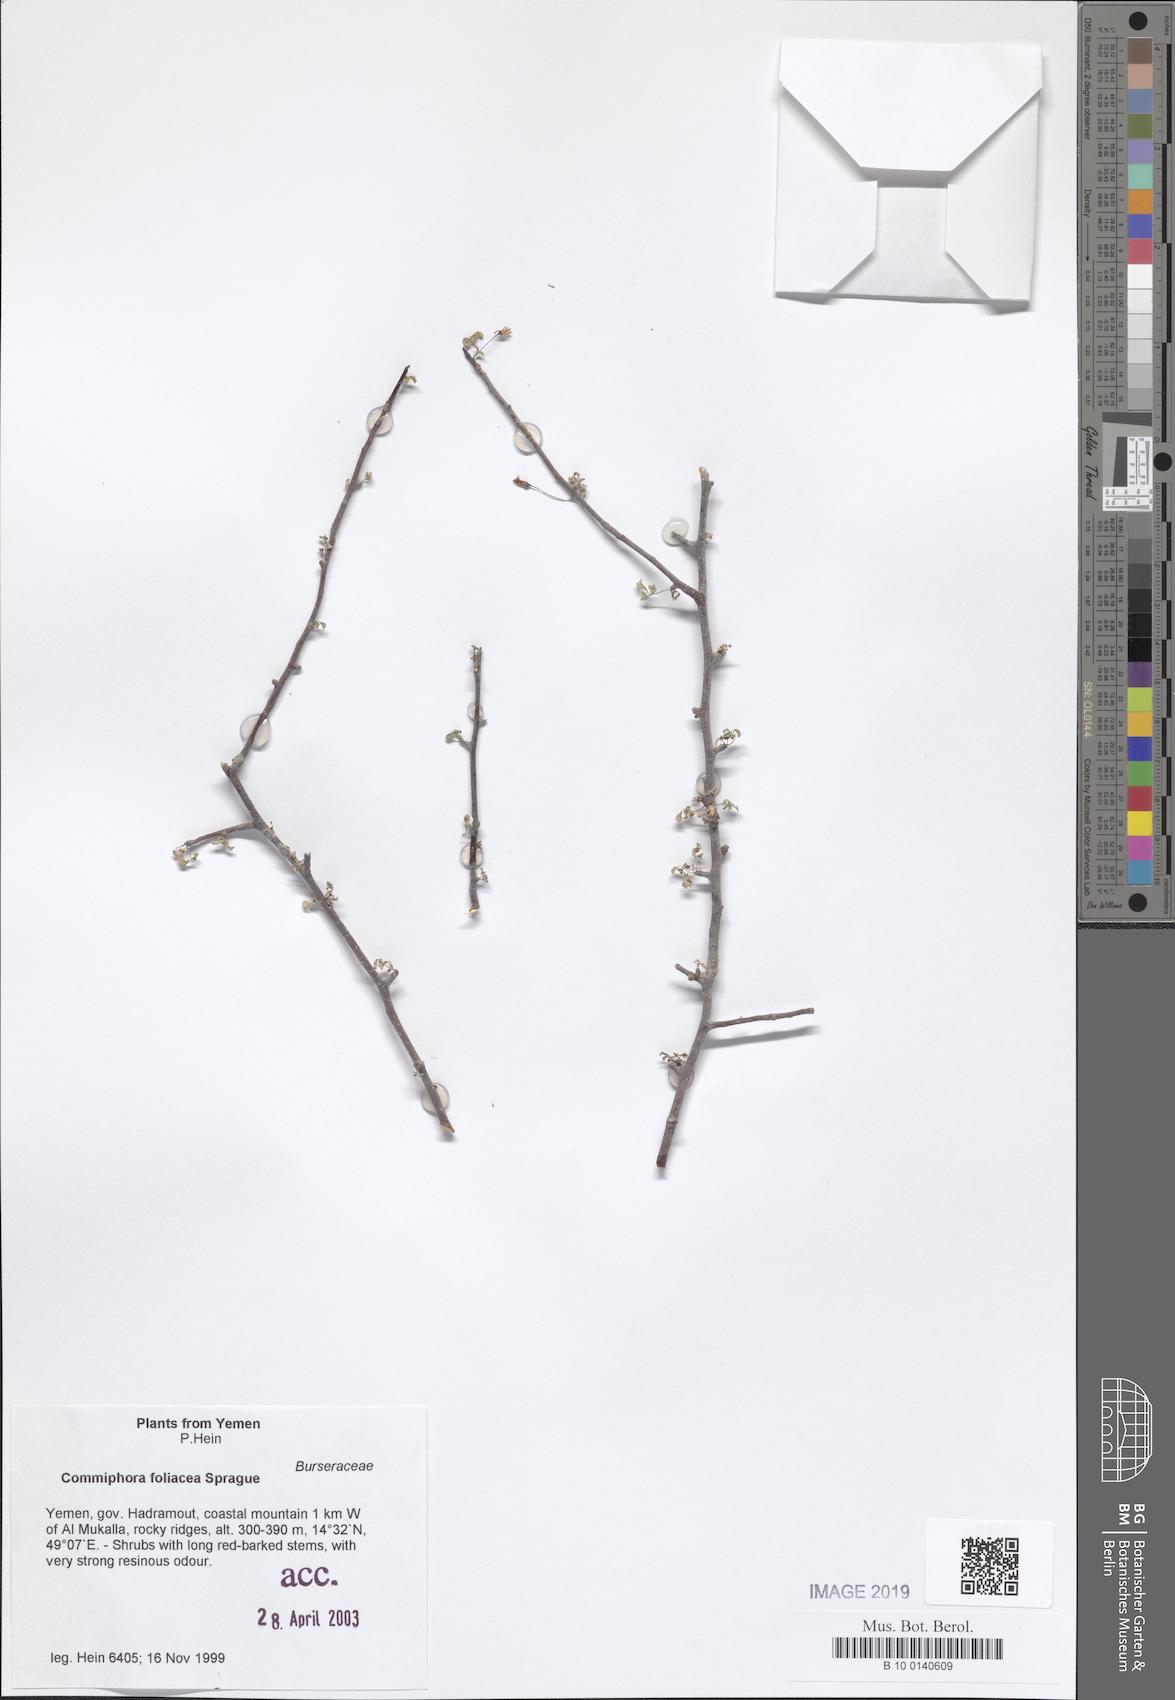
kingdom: Plantae
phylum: Tracheophyta
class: Magnoliopsida
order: Sapindales
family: Burseraceae
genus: Commiphora
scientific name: Commiphora foliacea
